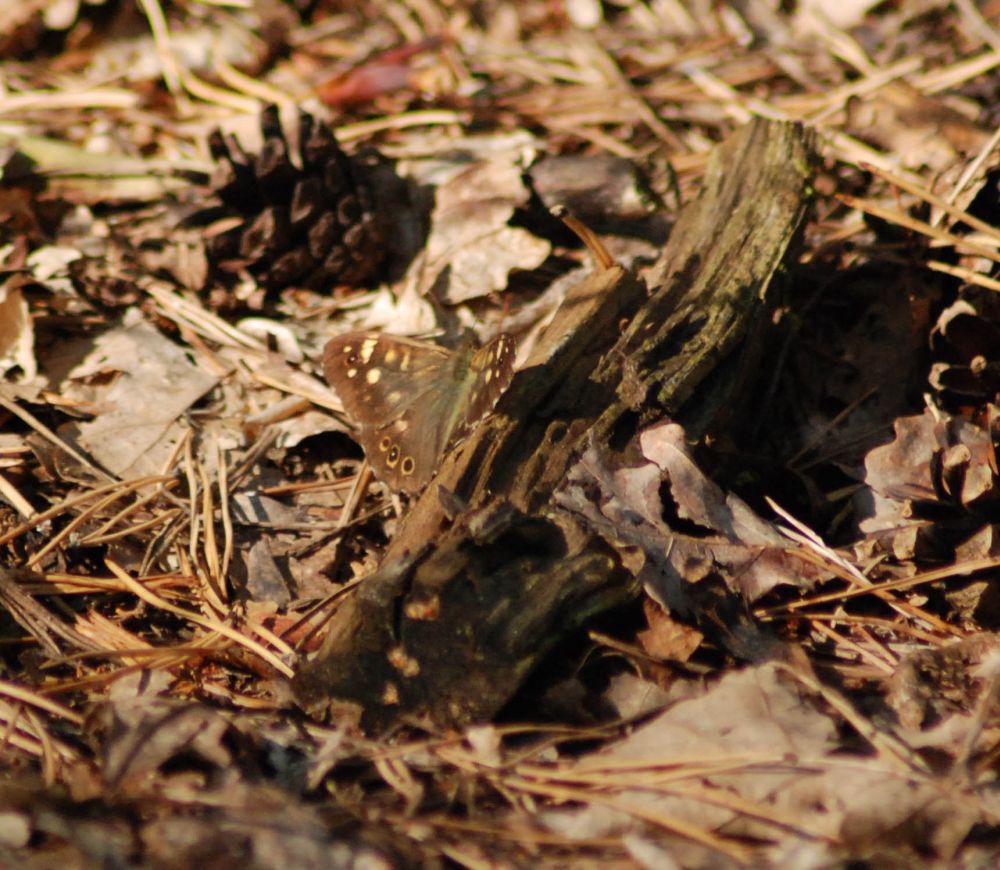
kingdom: Animalia
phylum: Arthropoda
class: Insecta
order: Lepidoptera
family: Nymphalidae
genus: Pararge
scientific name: Pararge aegeria
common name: Speckled wood
